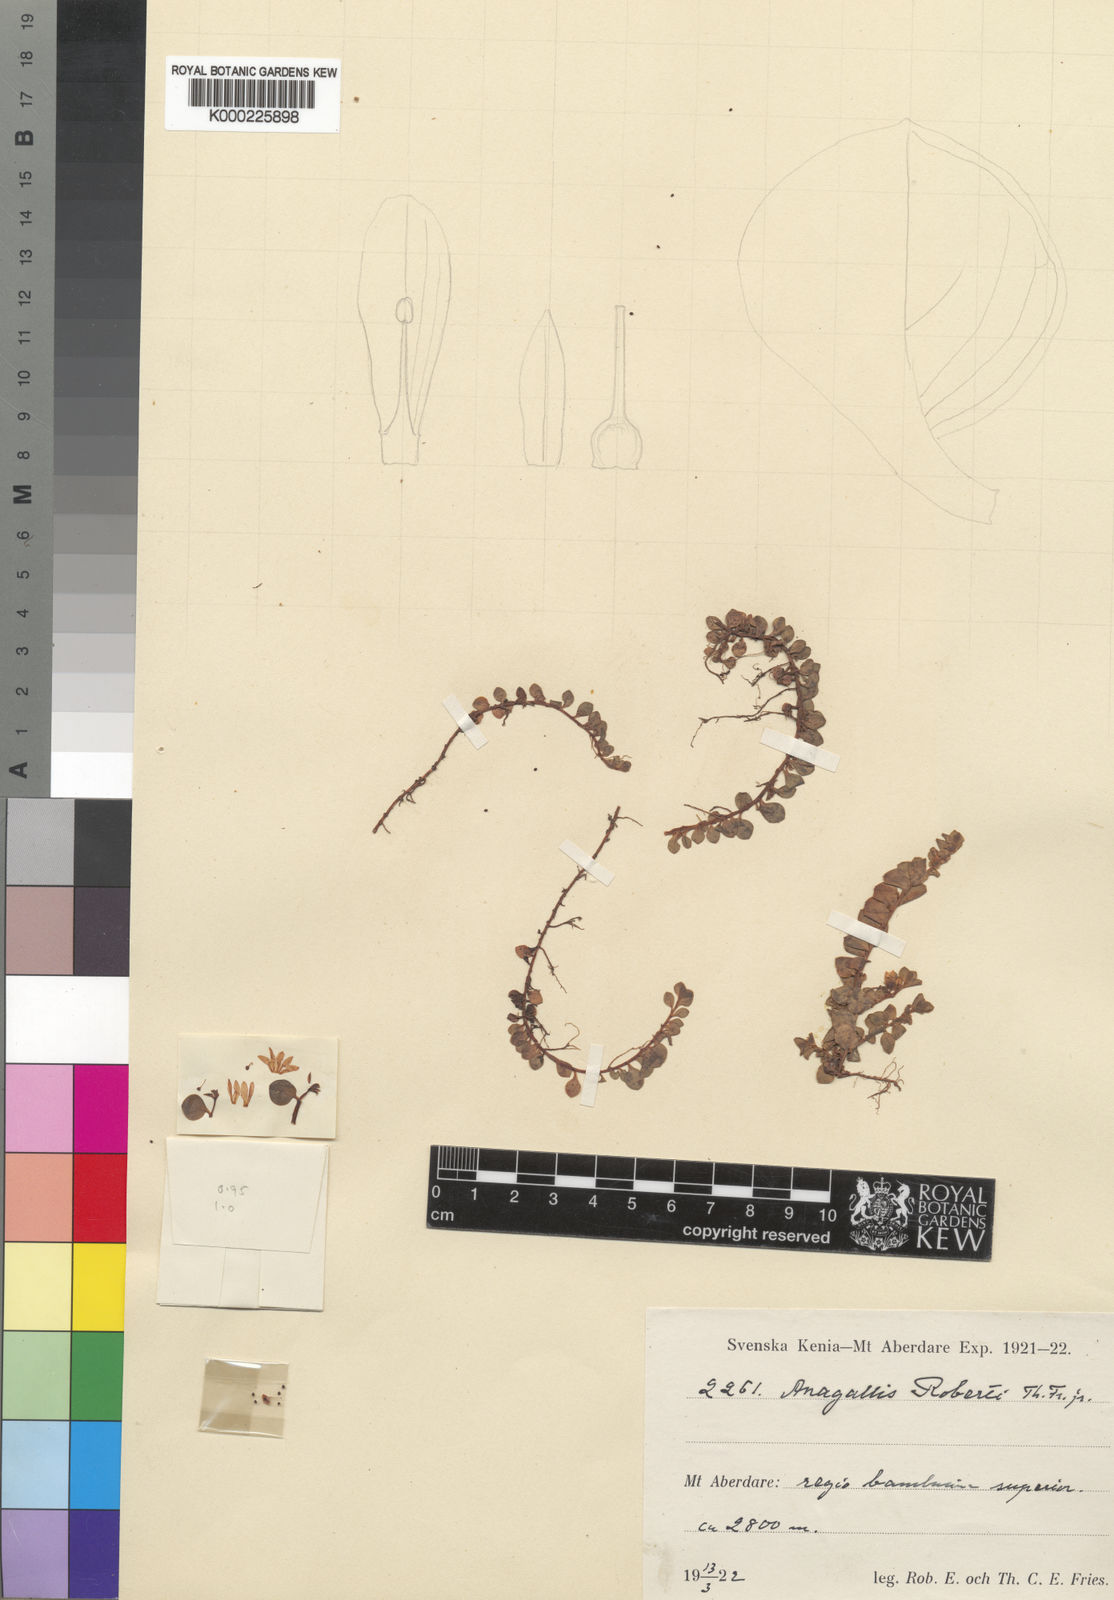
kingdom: Plantae
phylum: Tracheophyta
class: Magnoliopsida
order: Ericales
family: Primulaceae
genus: Lysimachia
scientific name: Lysimachia Anagallis spec
